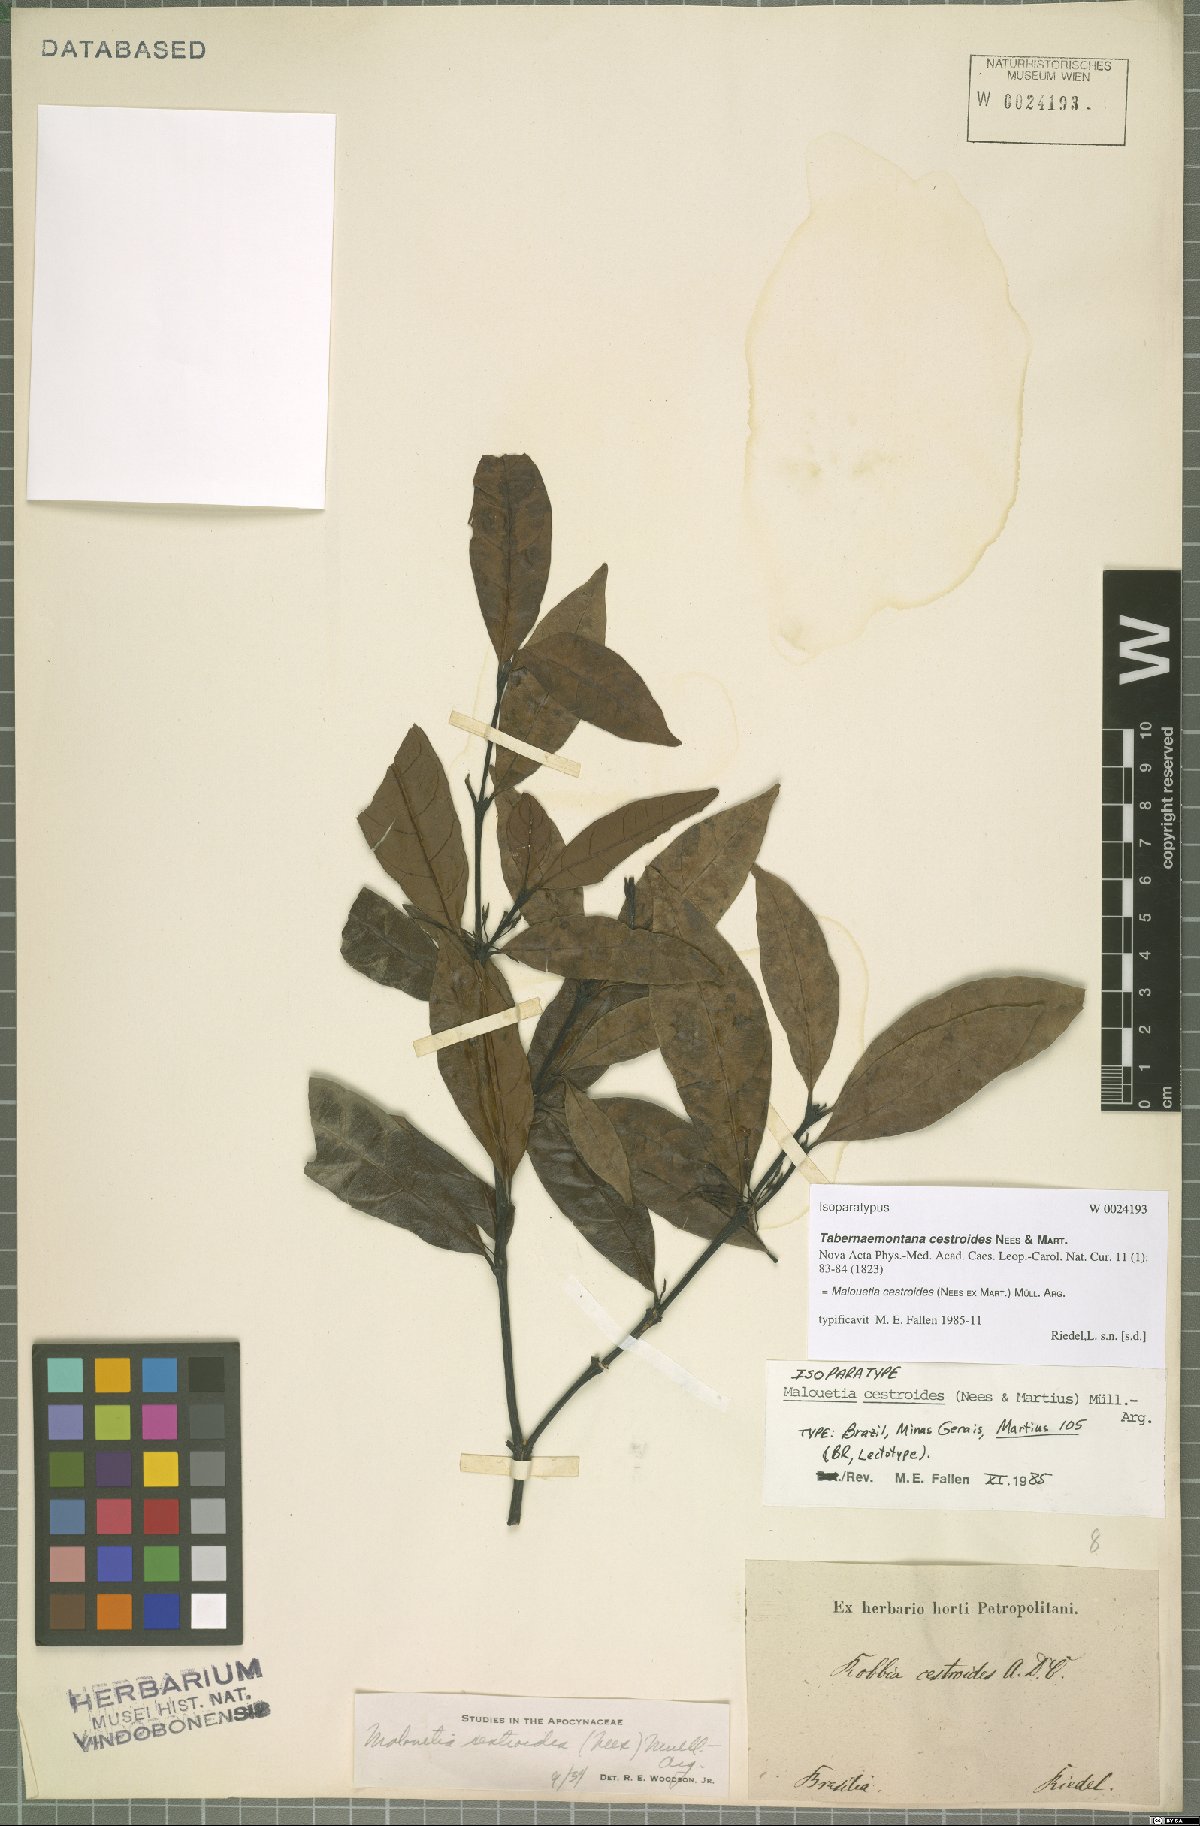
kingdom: Plantae
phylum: Tracheophyta
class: Magnoliopsida
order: Gentianales
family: Apocynaceae
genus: Malouetia
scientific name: Malouetia cestroides
